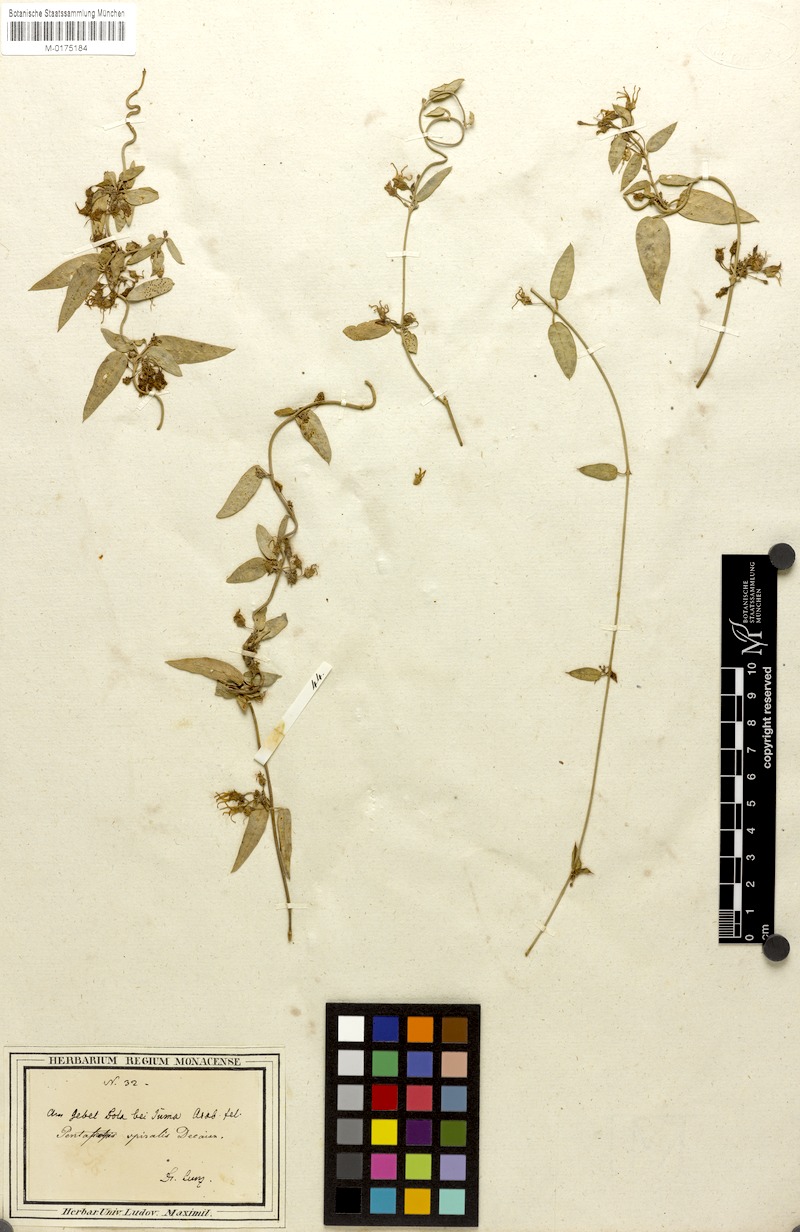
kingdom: Plantae
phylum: Tracheophyta
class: Magnoliopsida
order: Gentianales
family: Apocynaceae
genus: Vincetoxicum
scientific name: Vincetoxicum spirale
